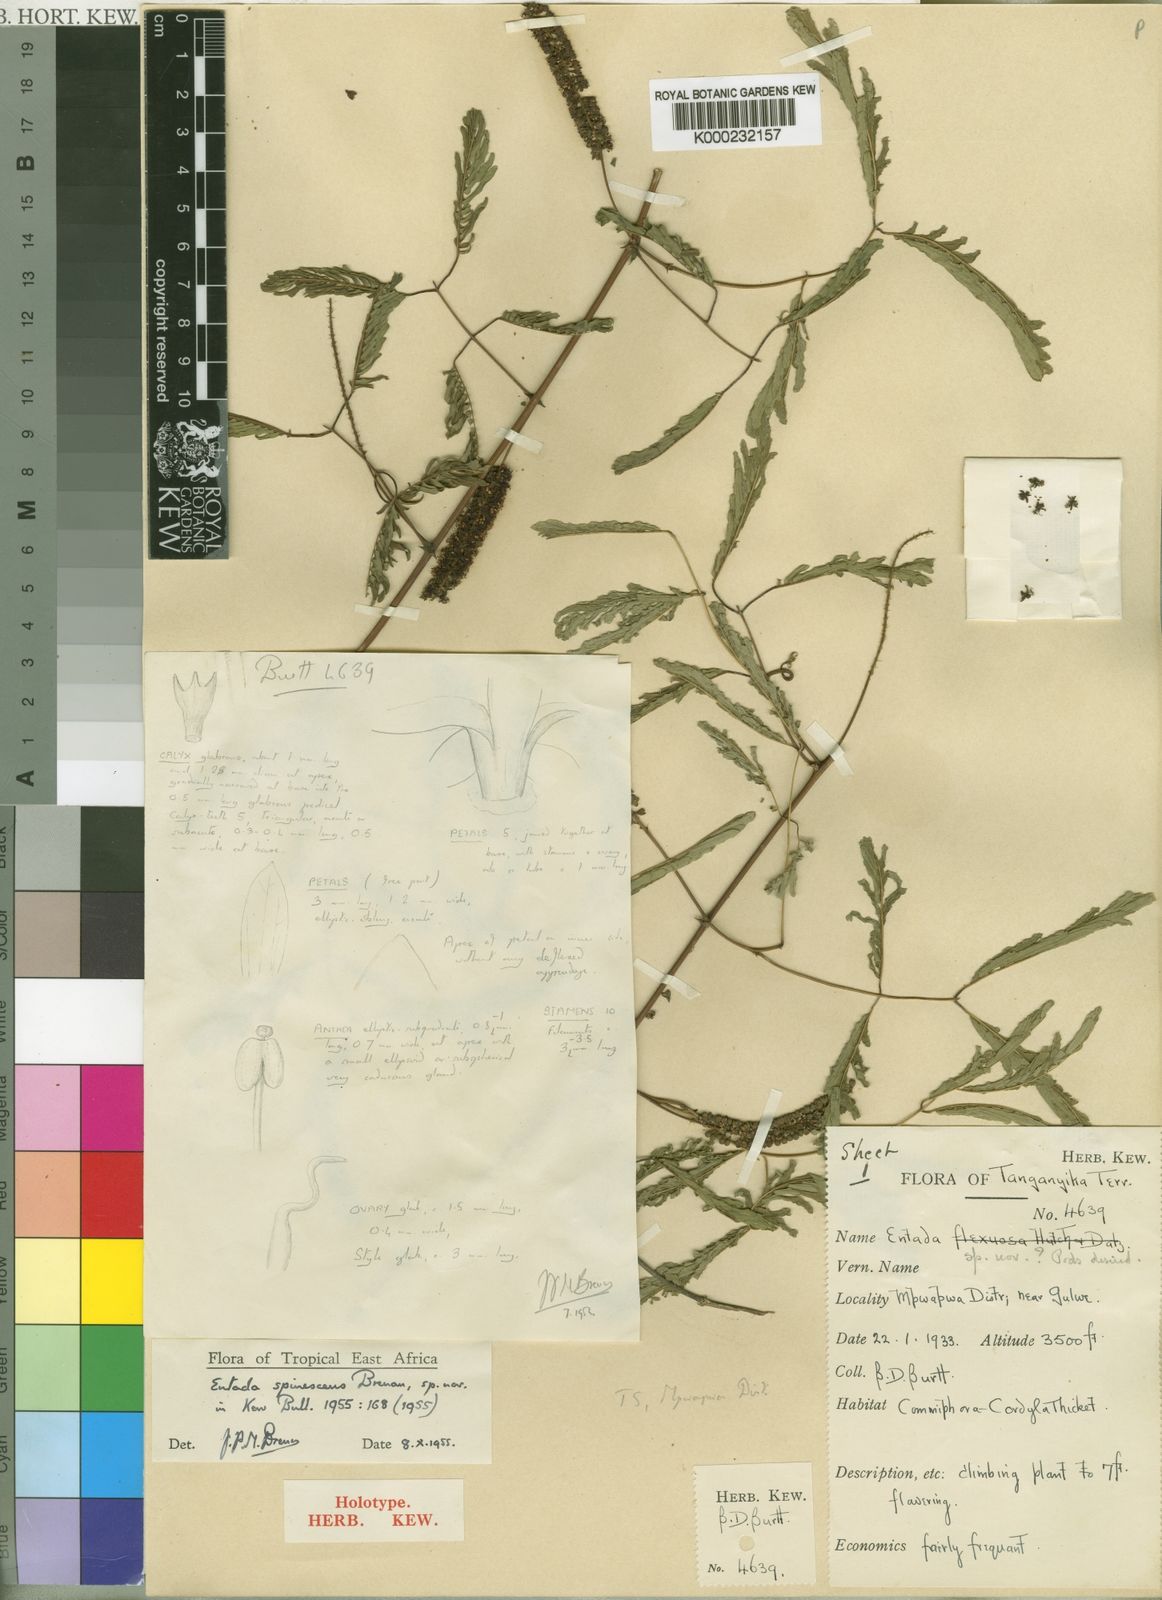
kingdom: Plantae
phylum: Tracheophyta
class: Magnoliopsida
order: Fabales
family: Fabaceae
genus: Entada
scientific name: Entada spinescens
